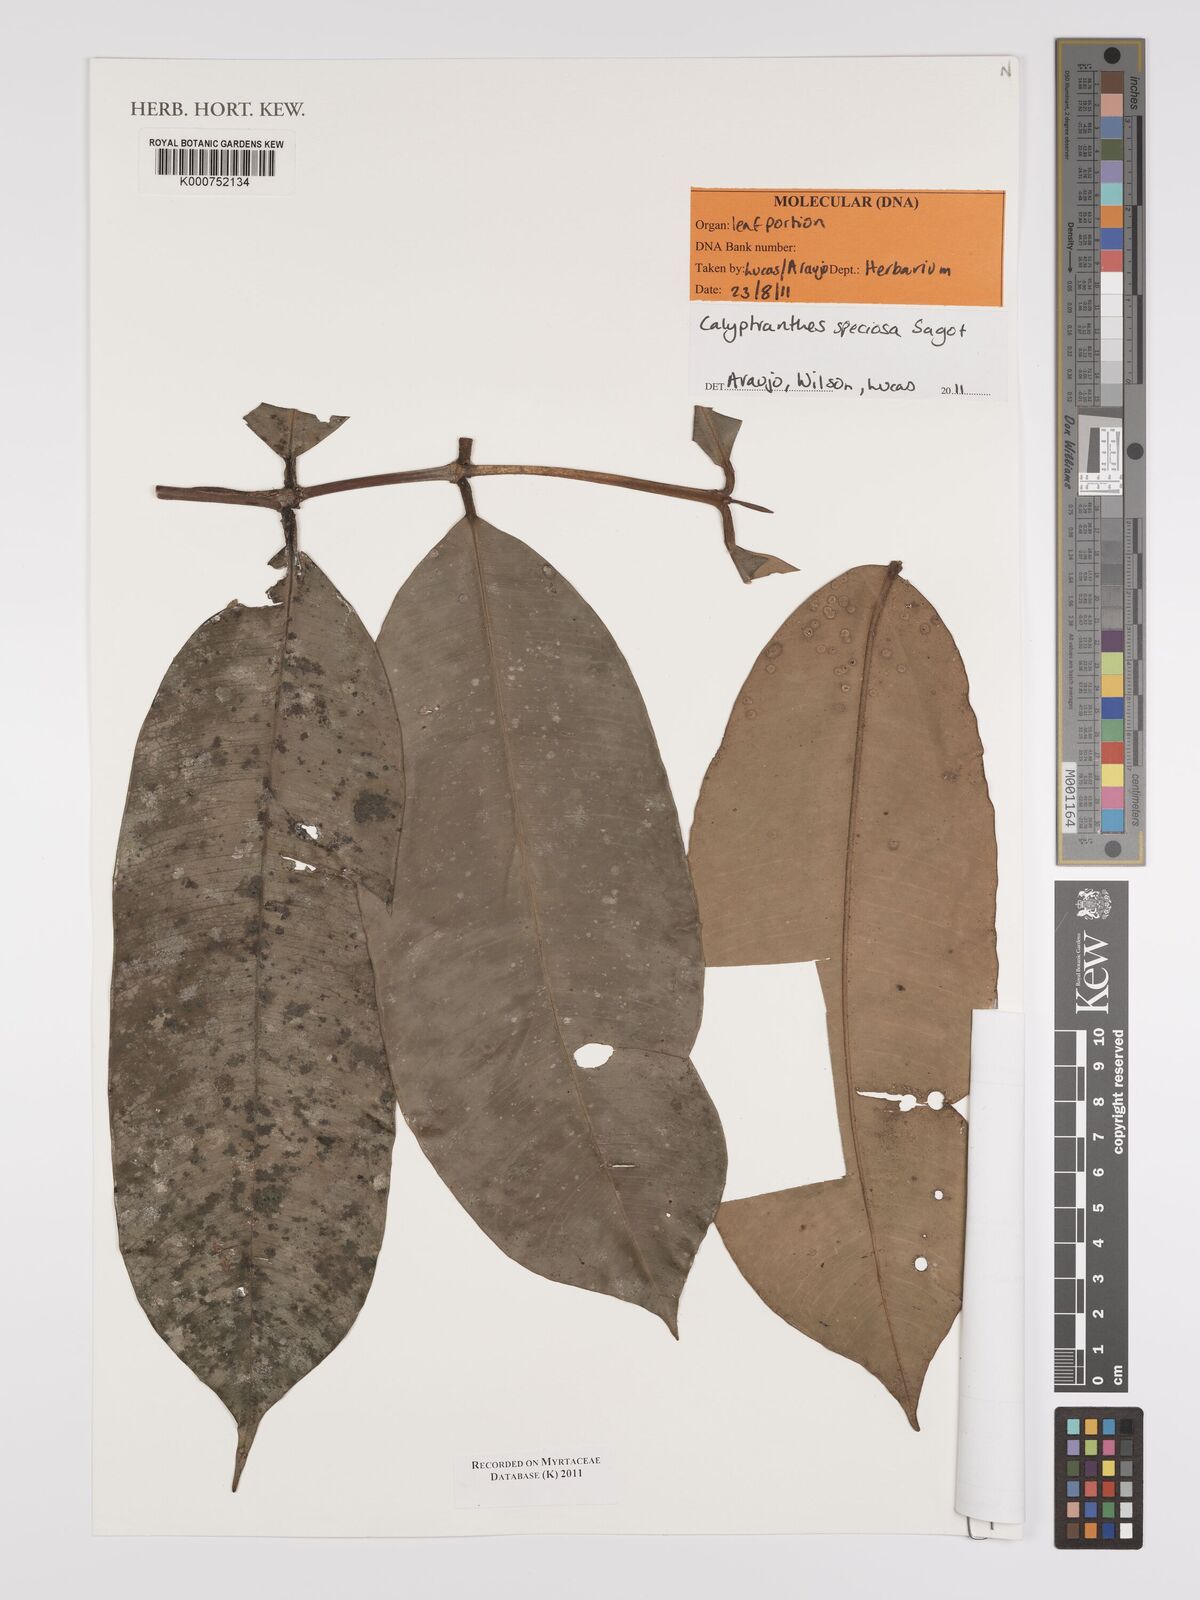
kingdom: Plantae
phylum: Tracheophyta
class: Magnoliopsida
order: Myrtales
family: Myrtaceae
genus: Myrcia
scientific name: Myrcia neospeciosa
